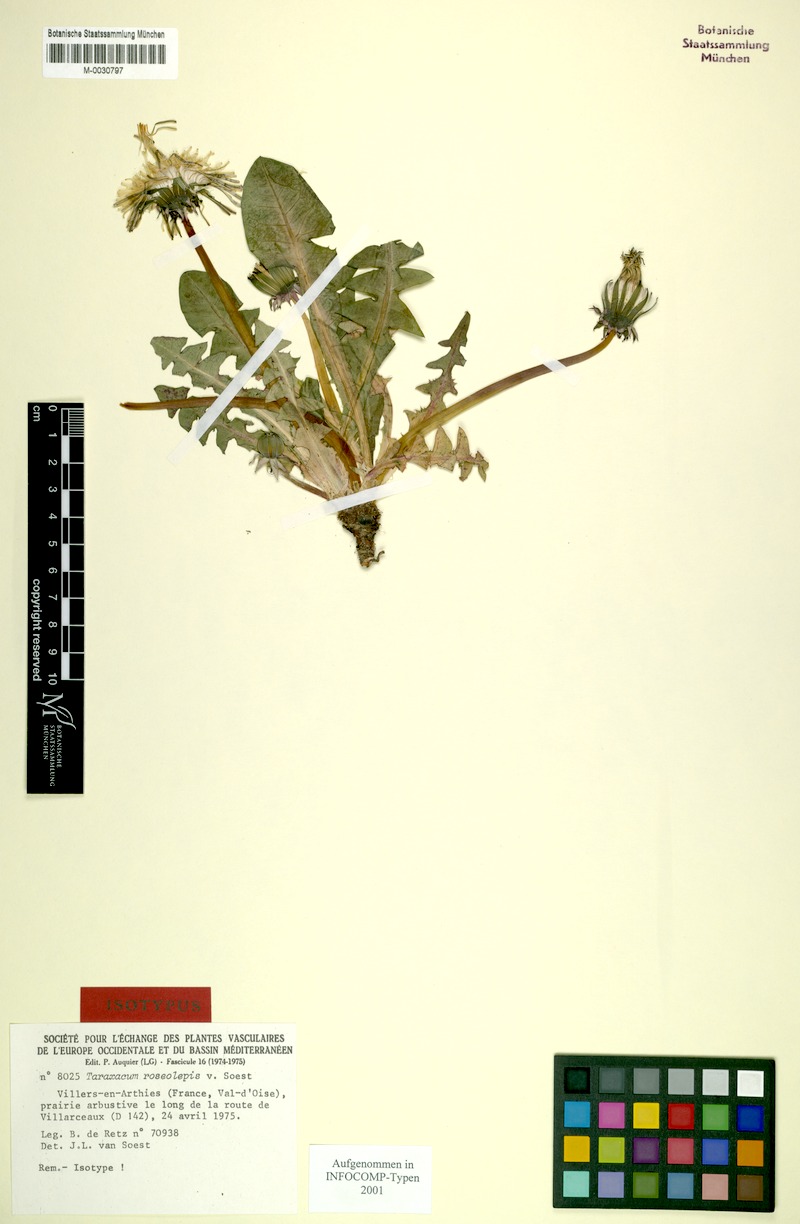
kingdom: Plantae
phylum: Tracheophyta
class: Magnoliopsida
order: Asterales
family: Asteraceae
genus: Taraxacum
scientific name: Taraxacum roseolepis
